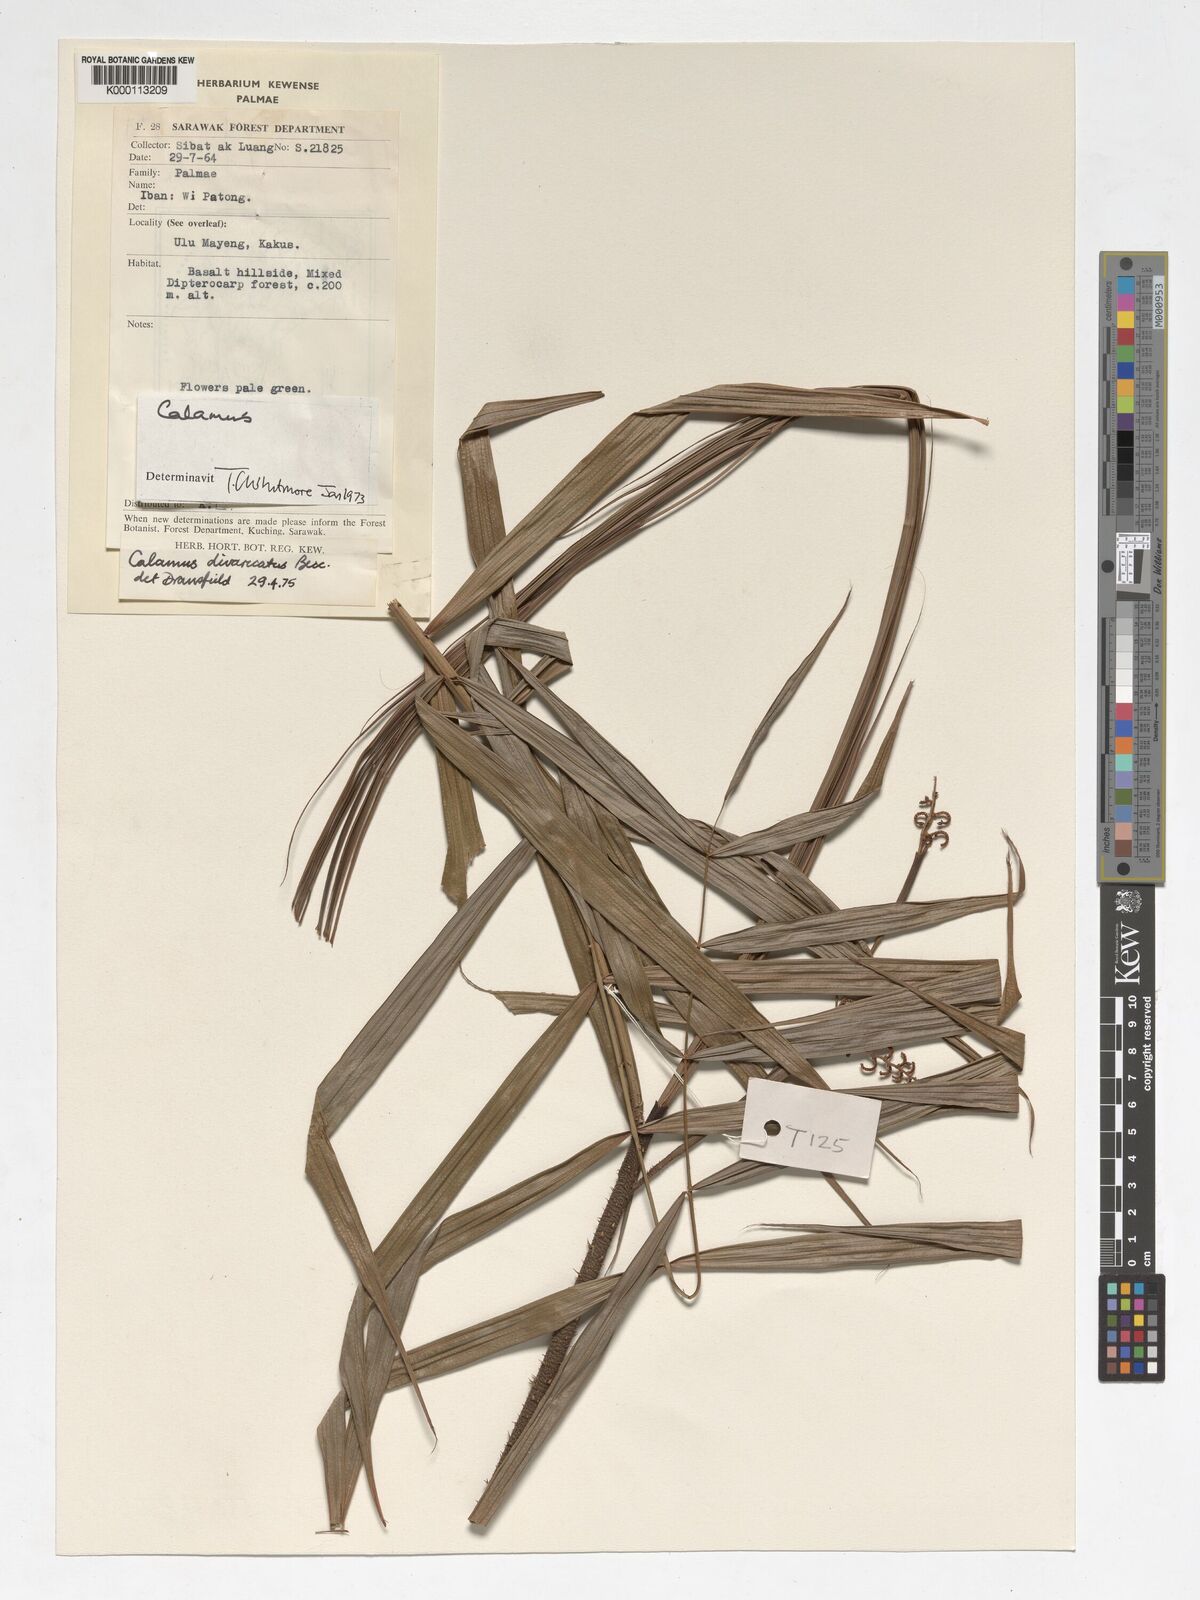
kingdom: Plantae
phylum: Tracheophyta
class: Liliopsida
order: Arecales
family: Arecaceae
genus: Calamus
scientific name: Calamus divaricatus
